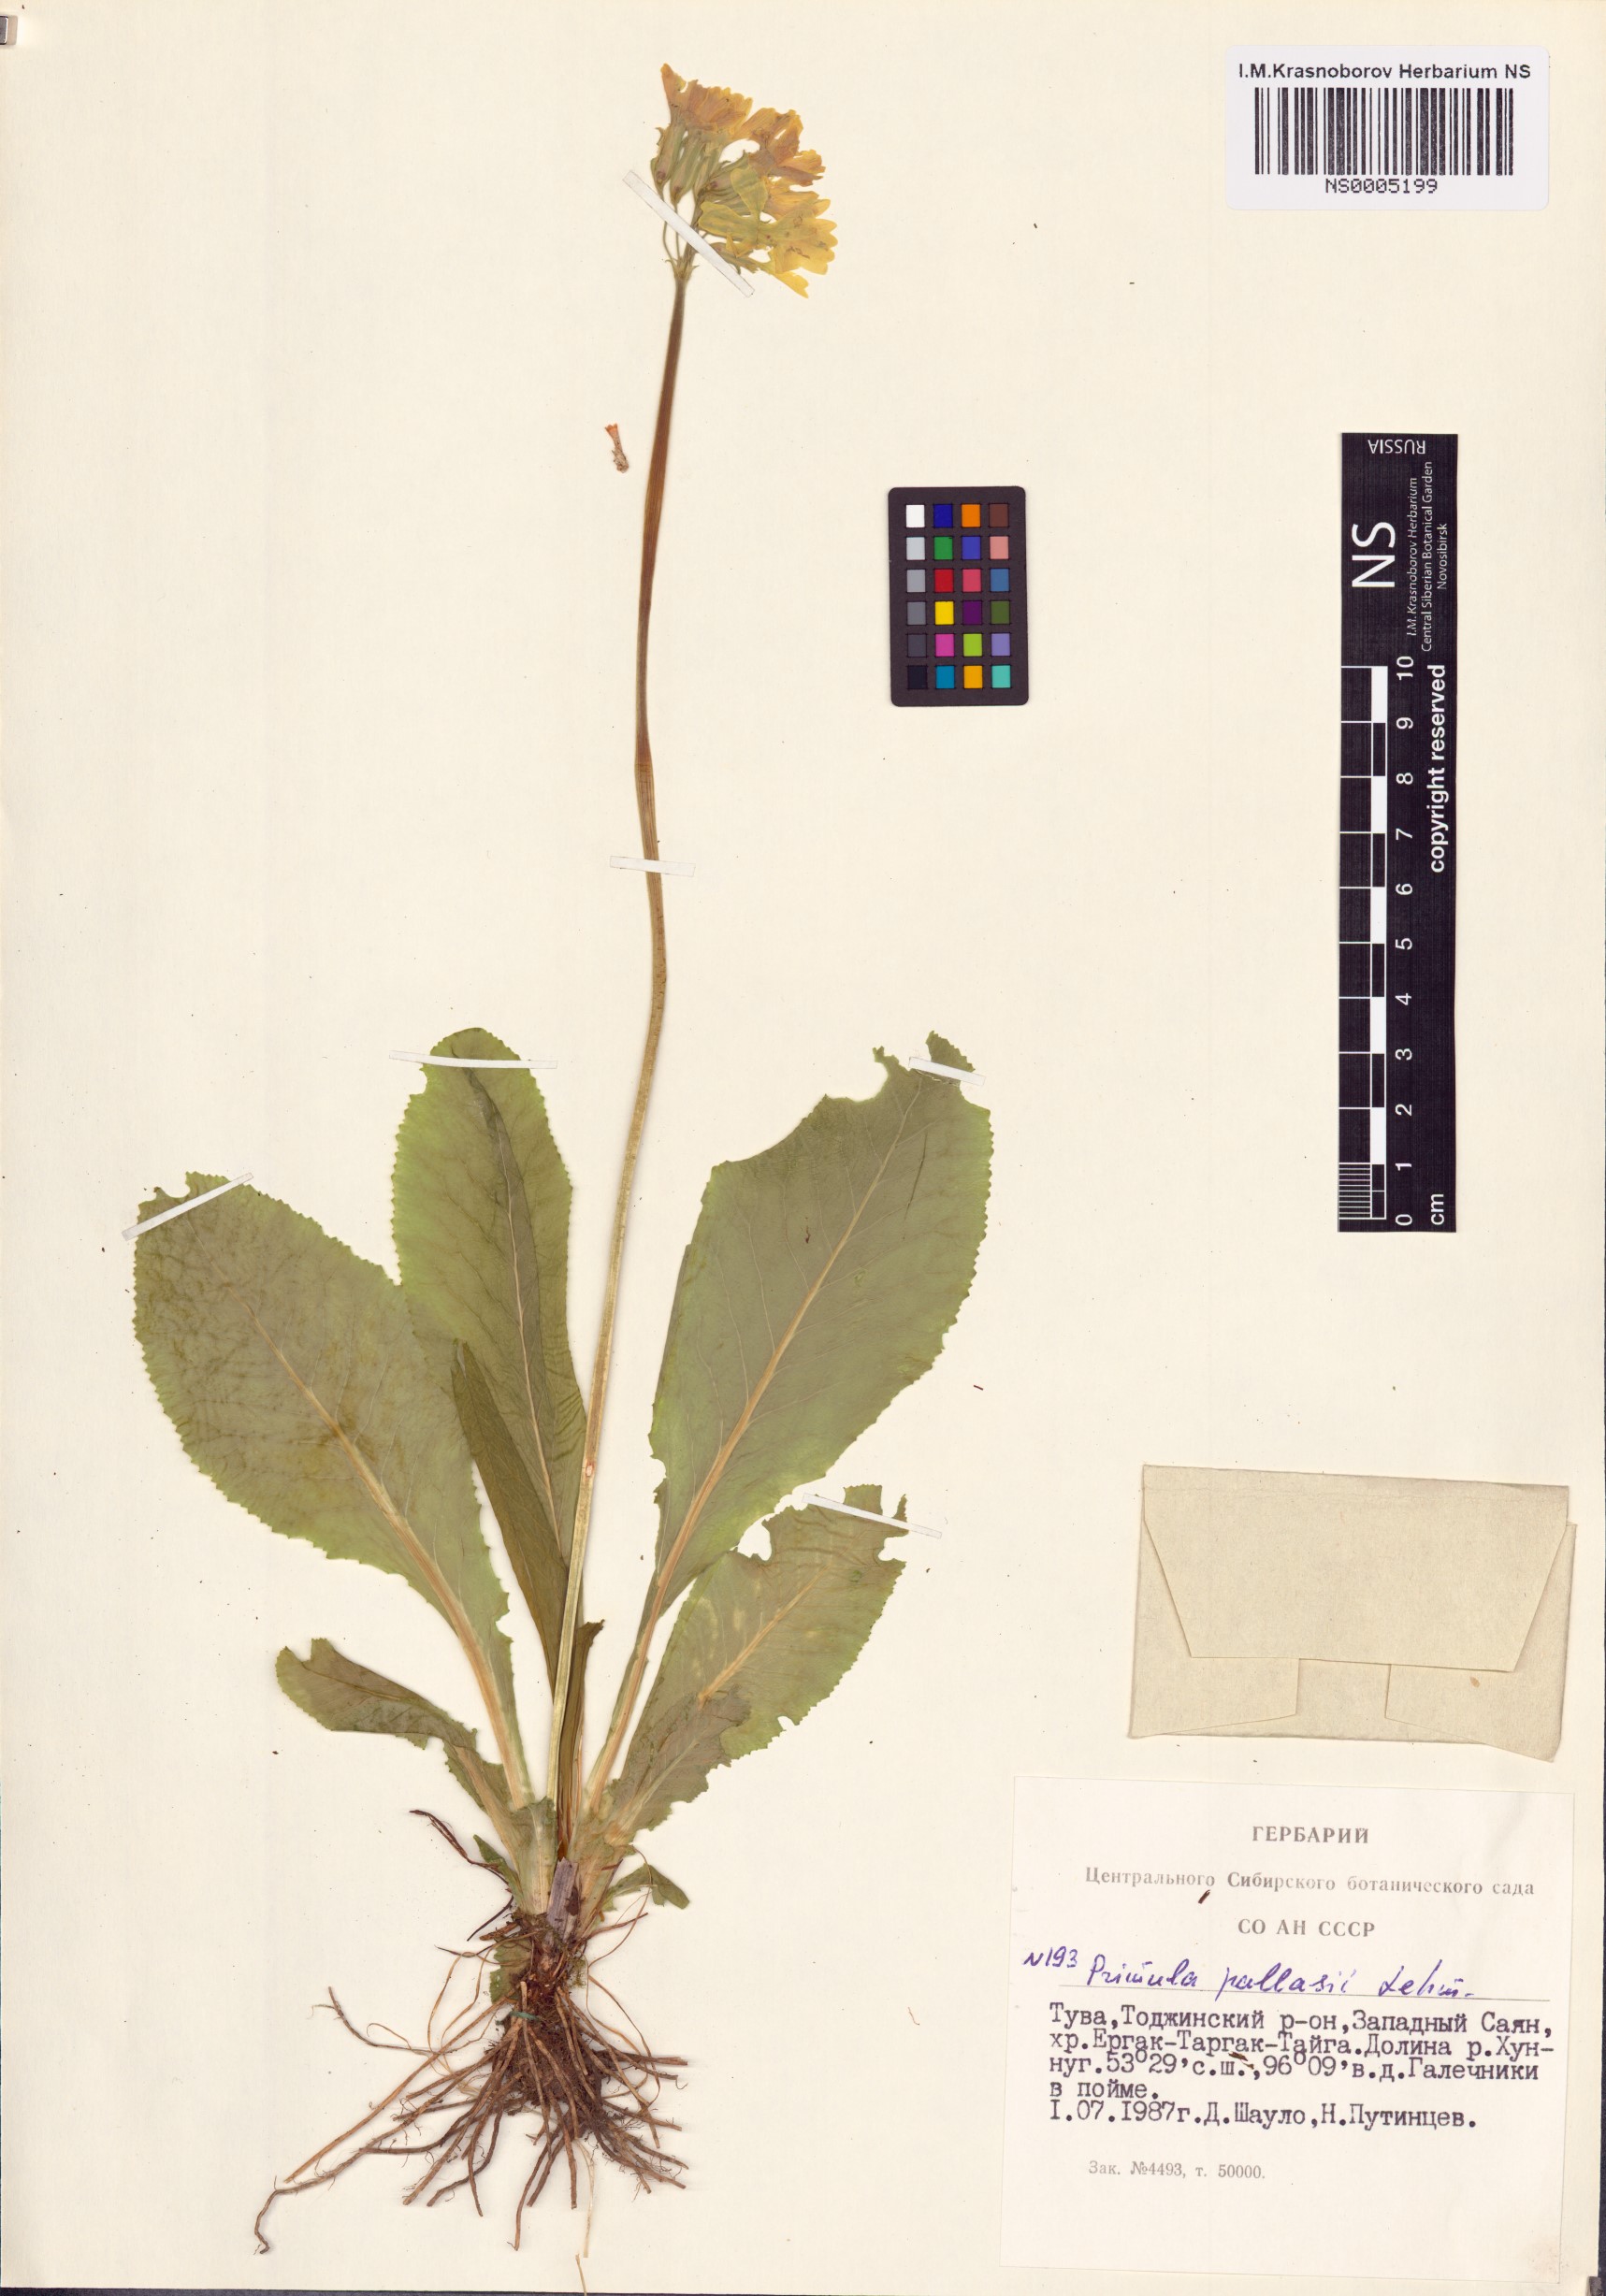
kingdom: Plantae
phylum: Tracheophyta
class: Magnoliopsida
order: Ericales
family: Primulaceae
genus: Primula
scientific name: Primula elatior
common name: Oxlip
